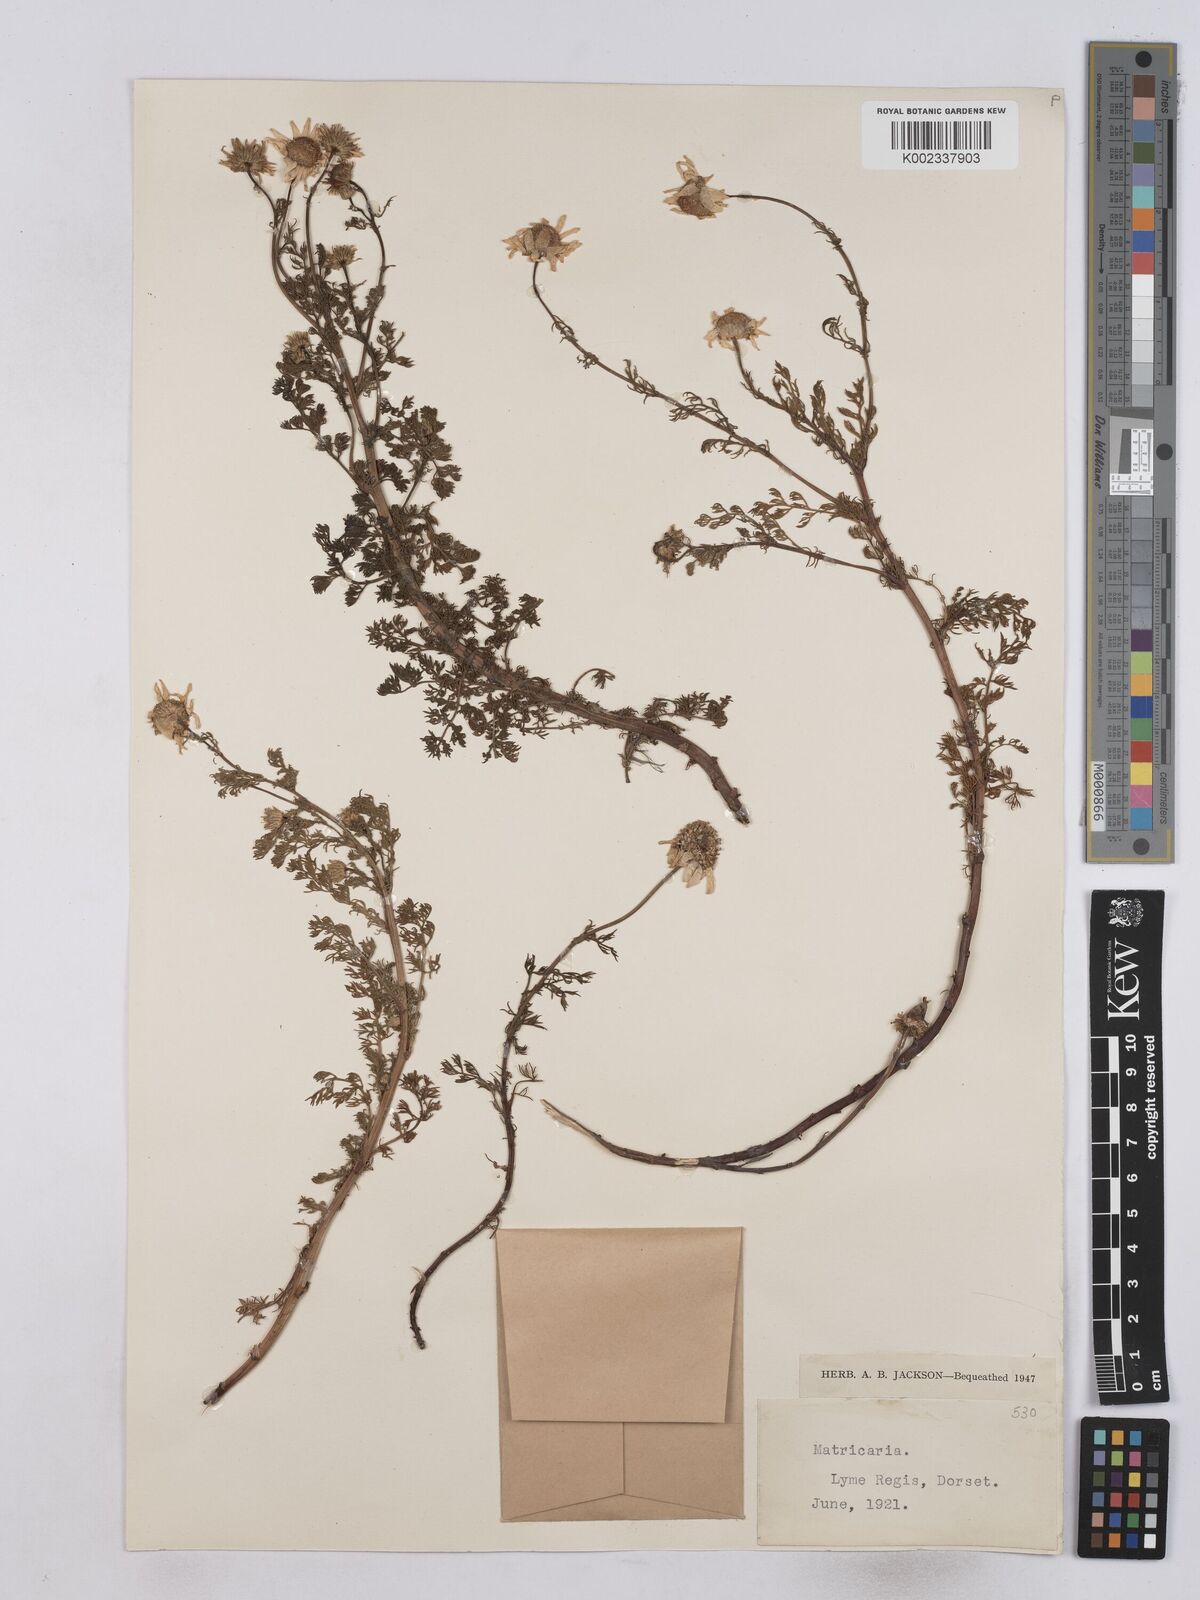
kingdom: Plantae
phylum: Tracheophyta
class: Magnoliopsida
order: Asterales
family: Asteraceae
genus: Matricaria
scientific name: Matricaria discoidea
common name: Disc mayweed
